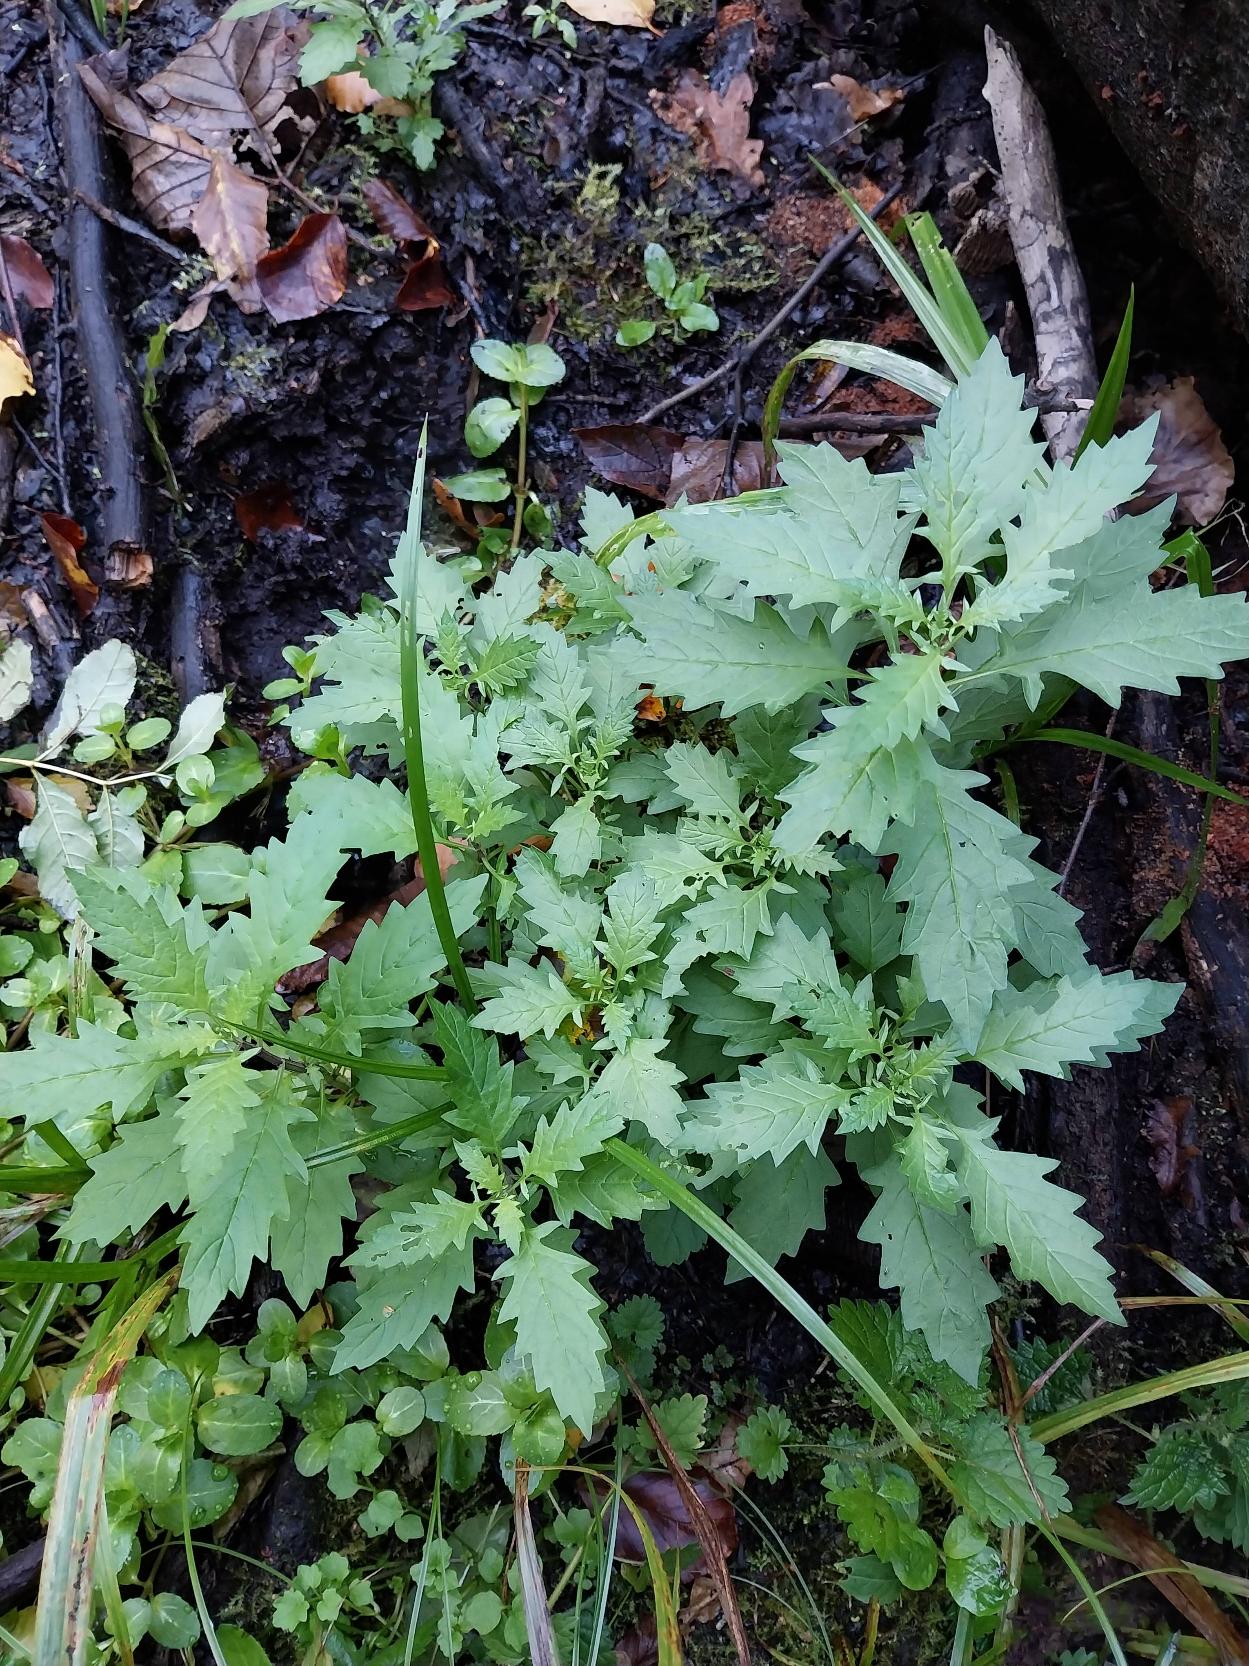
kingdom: Plantae
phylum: Tracheophyta
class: Magnoliopsida
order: Lamiales
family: Lamiaceae
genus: Lycopus
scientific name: Lycopus europaeus
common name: Sværtevæld
